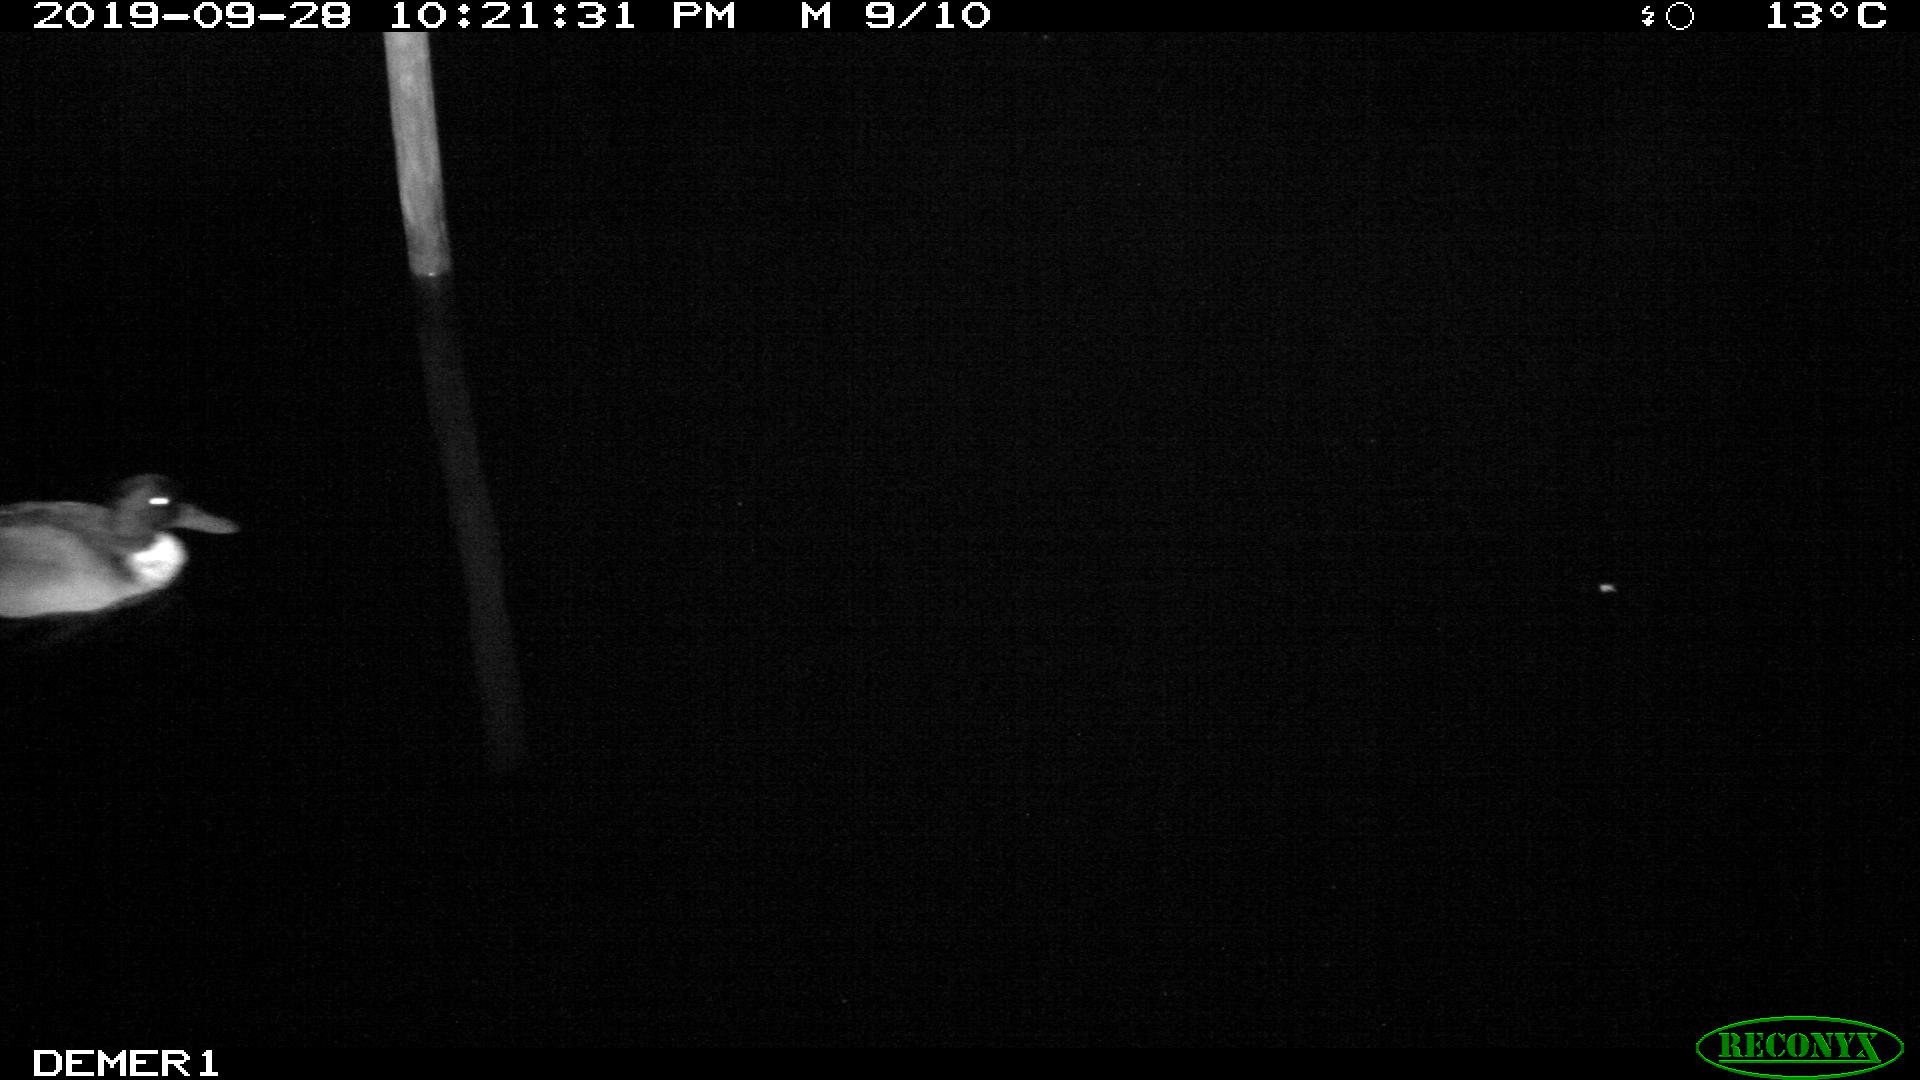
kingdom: Animalia
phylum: Chordata
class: Aves
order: Anseriformes
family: Anatidae
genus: Anas
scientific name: Anas platyrhynchos
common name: Mallard
